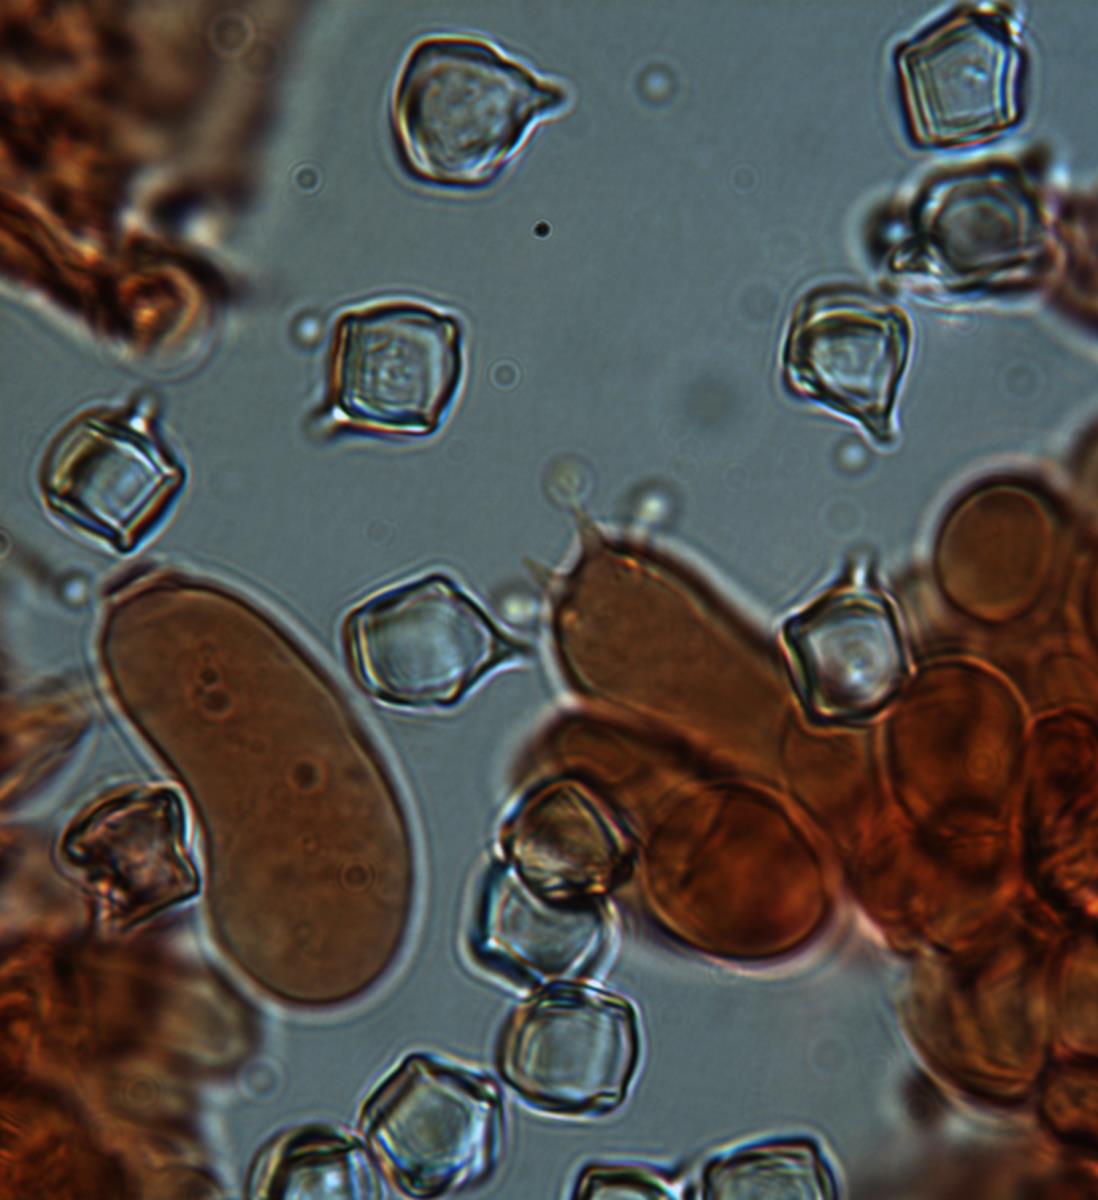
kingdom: Fungi
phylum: Basidiomycota
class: Agaricomycetes
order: Agaricales
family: Entolomataceae
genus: Entoloma
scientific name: Entoloma gasteromycetoides
